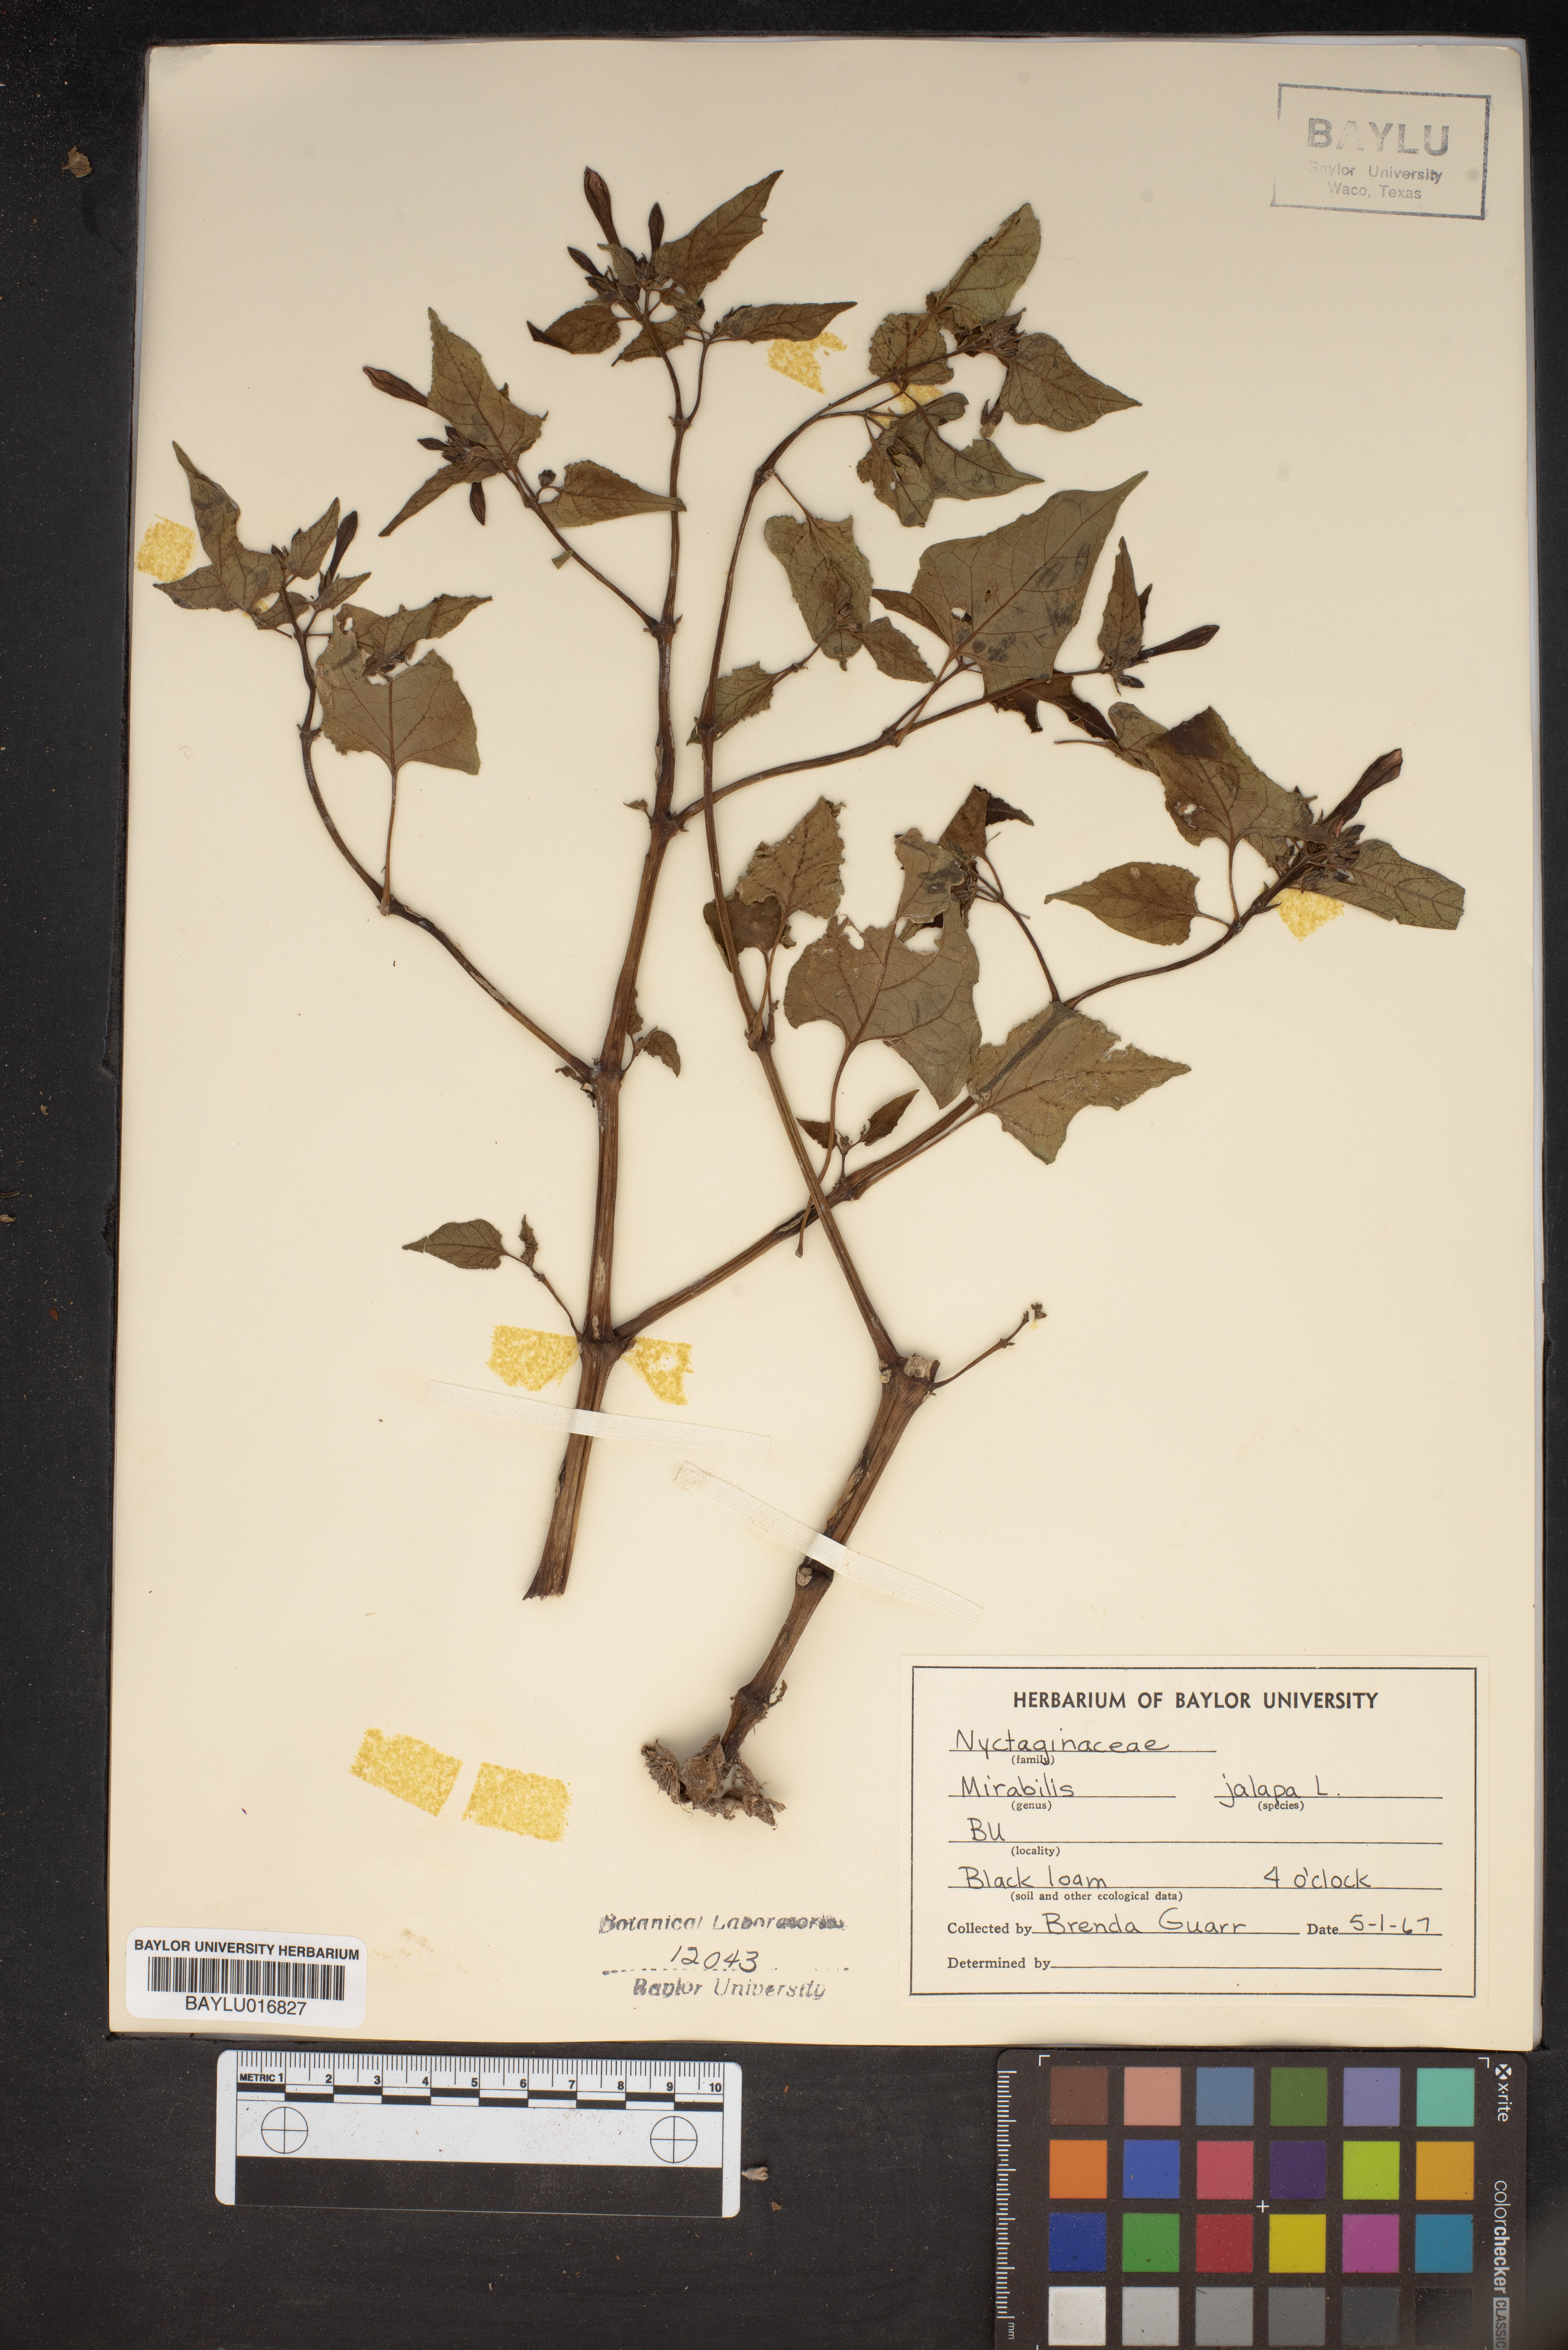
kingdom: Plantae
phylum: Tracheophyta
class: Magnoliopsida
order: Caryophyllales
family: Nyctaginaceae
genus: Mirabilis
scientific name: Mirabilis jalapa
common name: Marvel-of-peru
